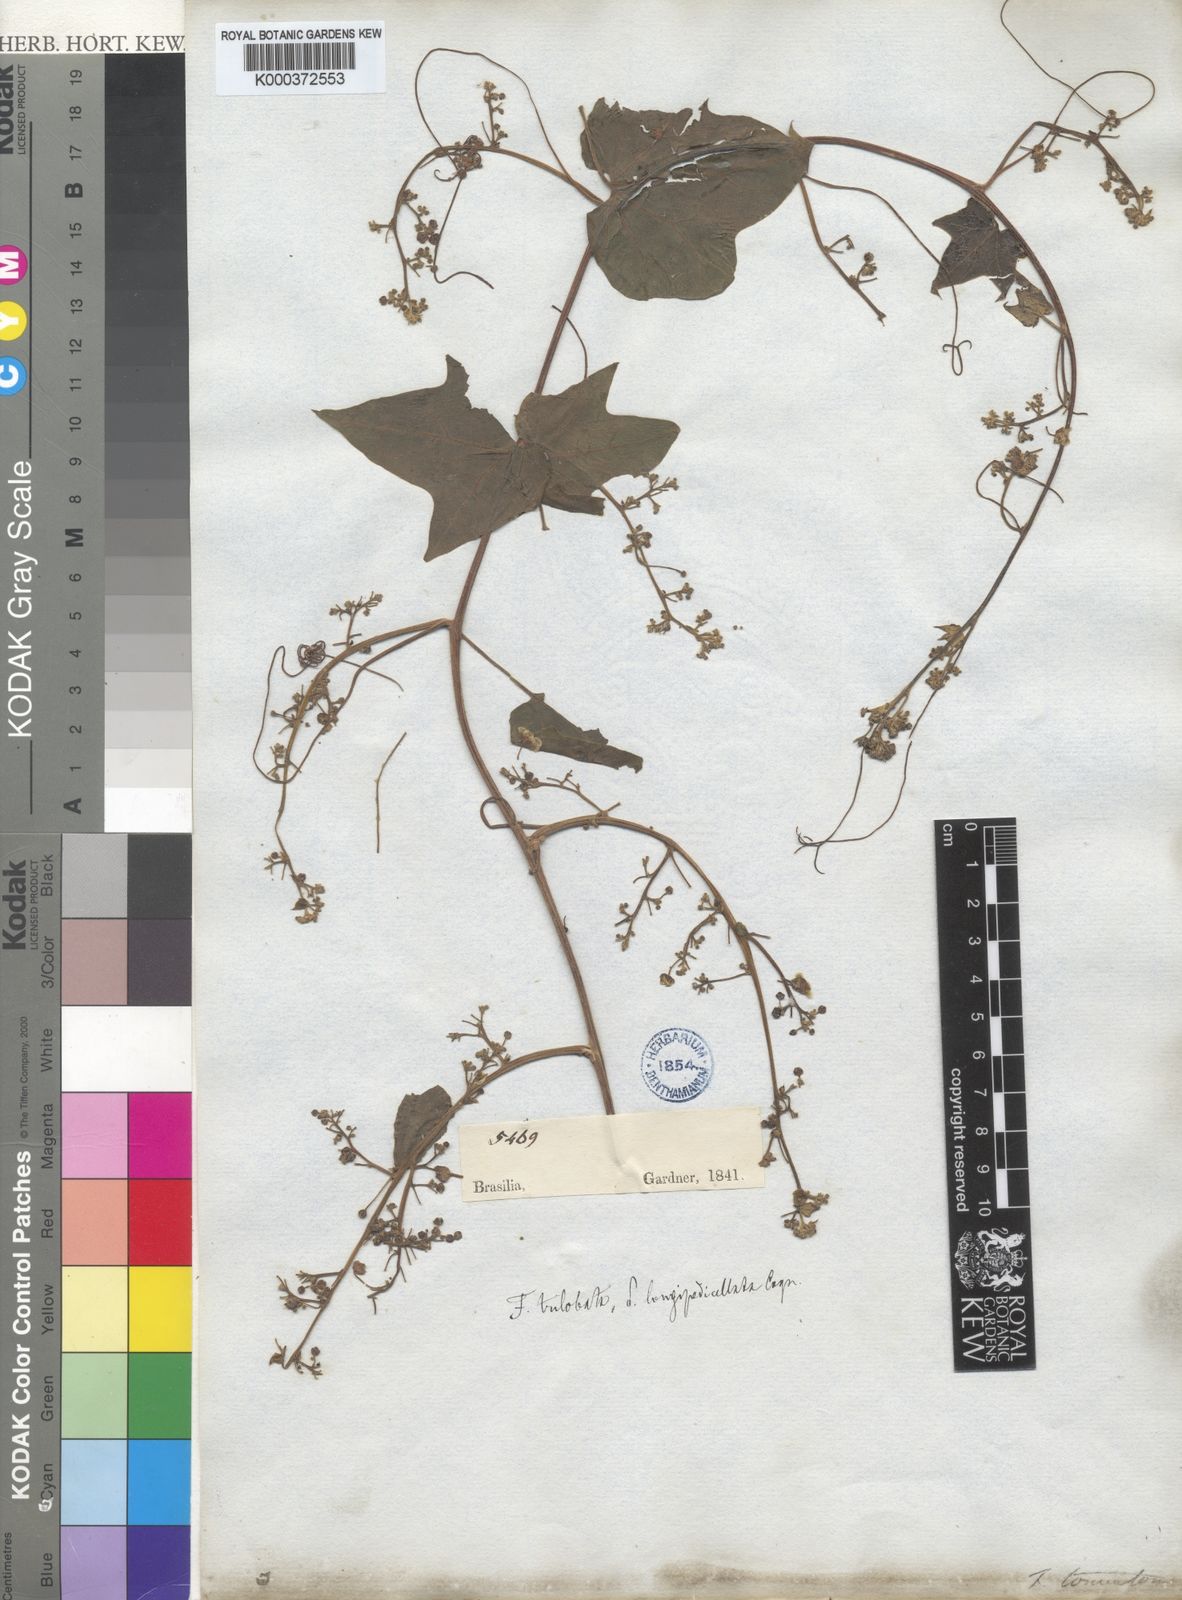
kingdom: Plantae
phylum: Tracheophyta
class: Magnoliopsida
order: Cucurbitales
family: Cucurbitaceae
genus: Fevillea
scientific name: Fevillea trilobata
